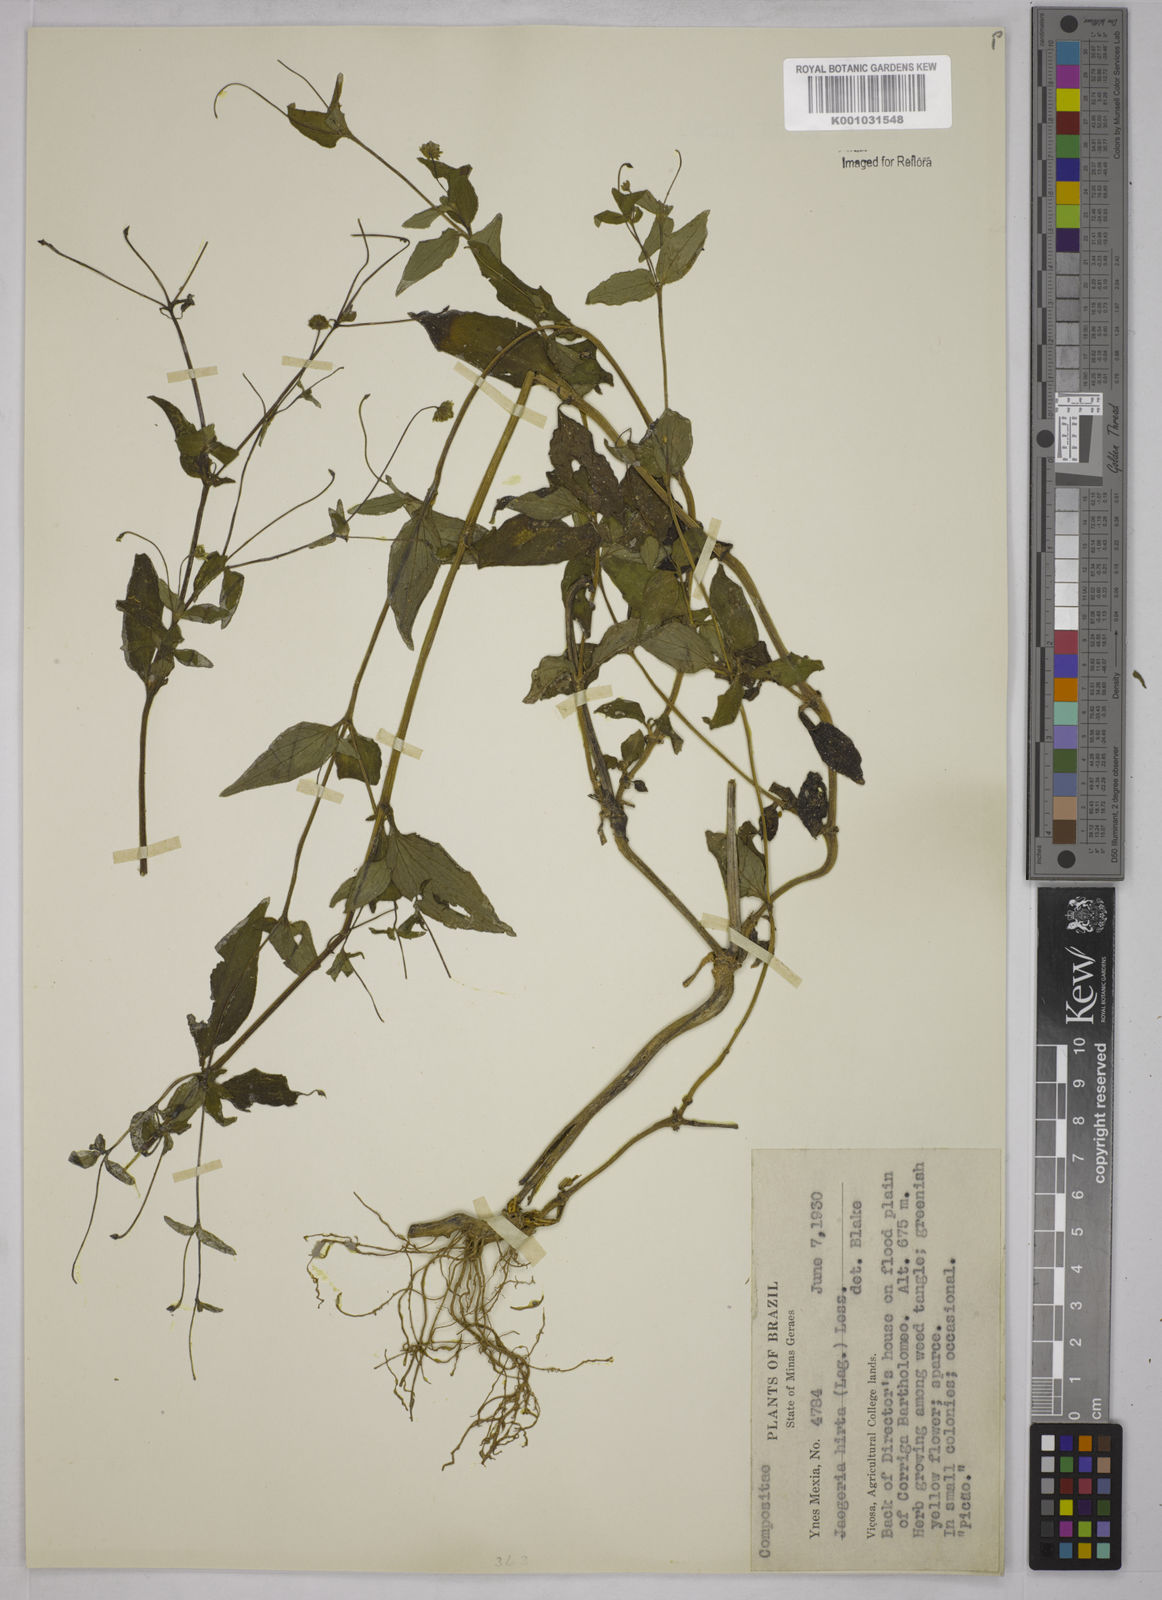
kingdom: Plantae
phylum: Tracheophyta
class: Magnoliopsida
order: Asterales
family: Asteraceae
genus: Jaegeria
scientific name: Jaegeria hirta
